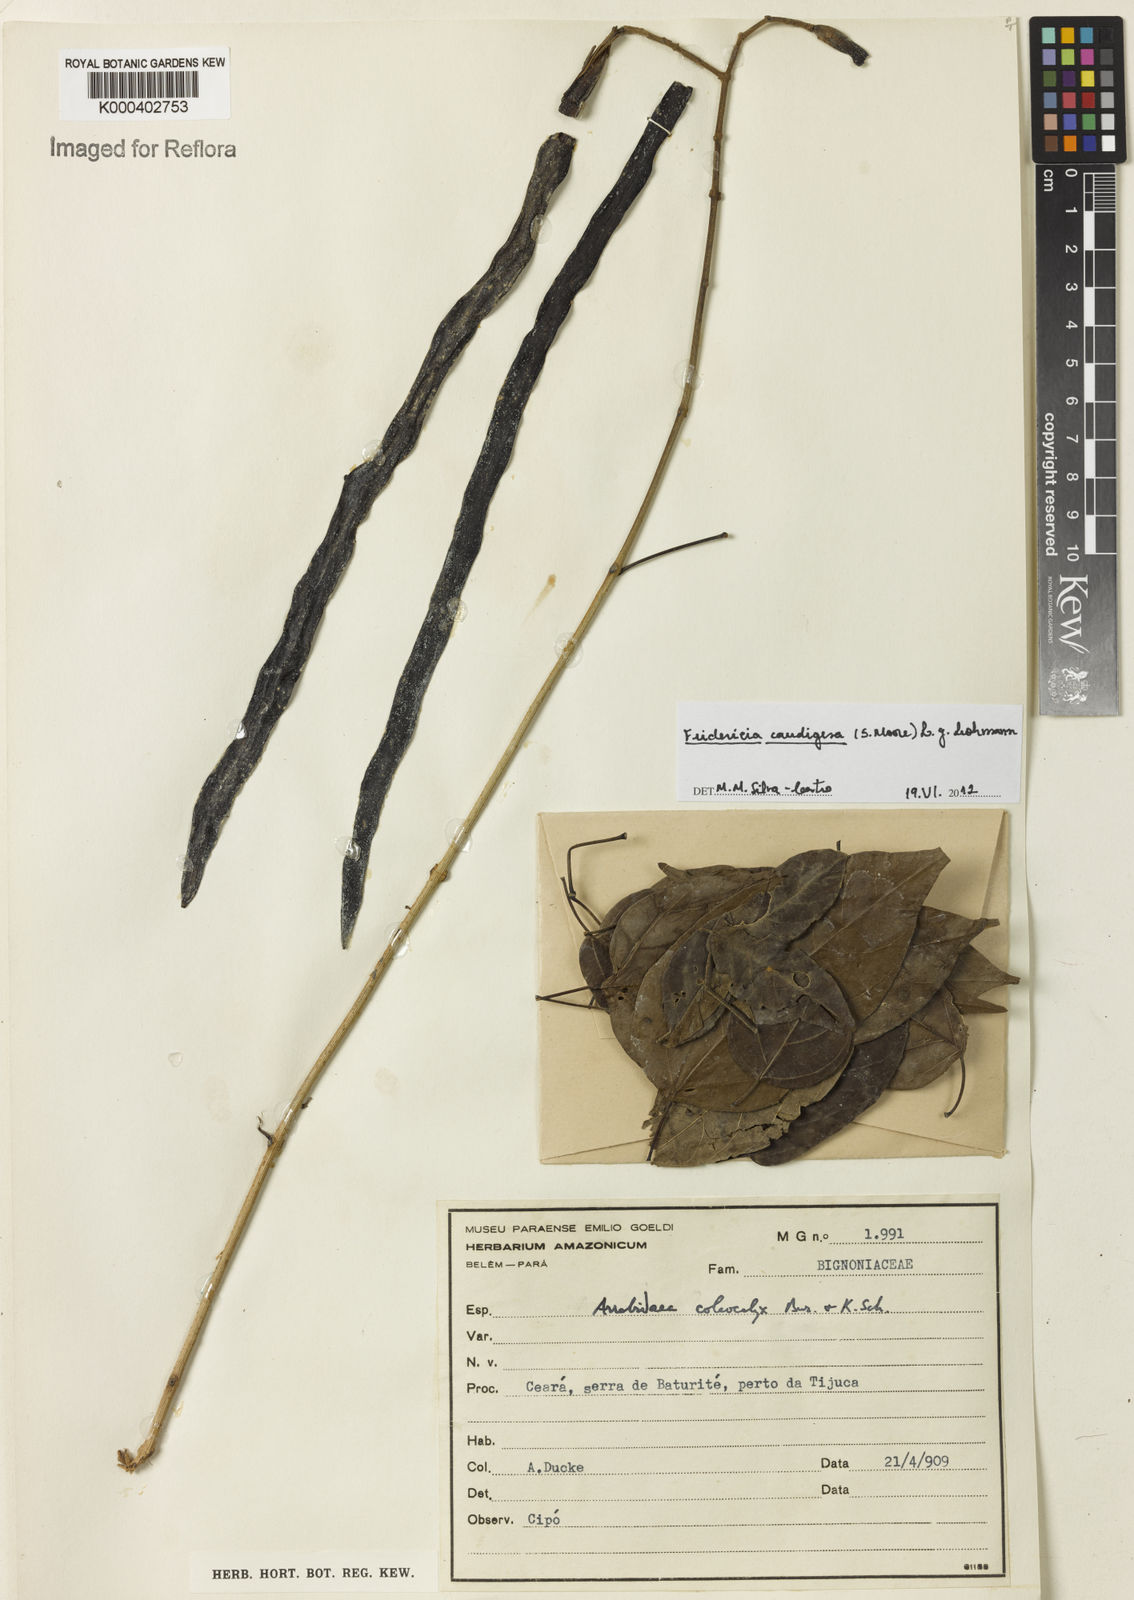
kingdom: Plantae
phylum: Tracheophyta
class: Magnoliopsida
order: Lamiales
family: Bignoniaceae
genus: Fridericia
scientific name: Fridericia caudigera
